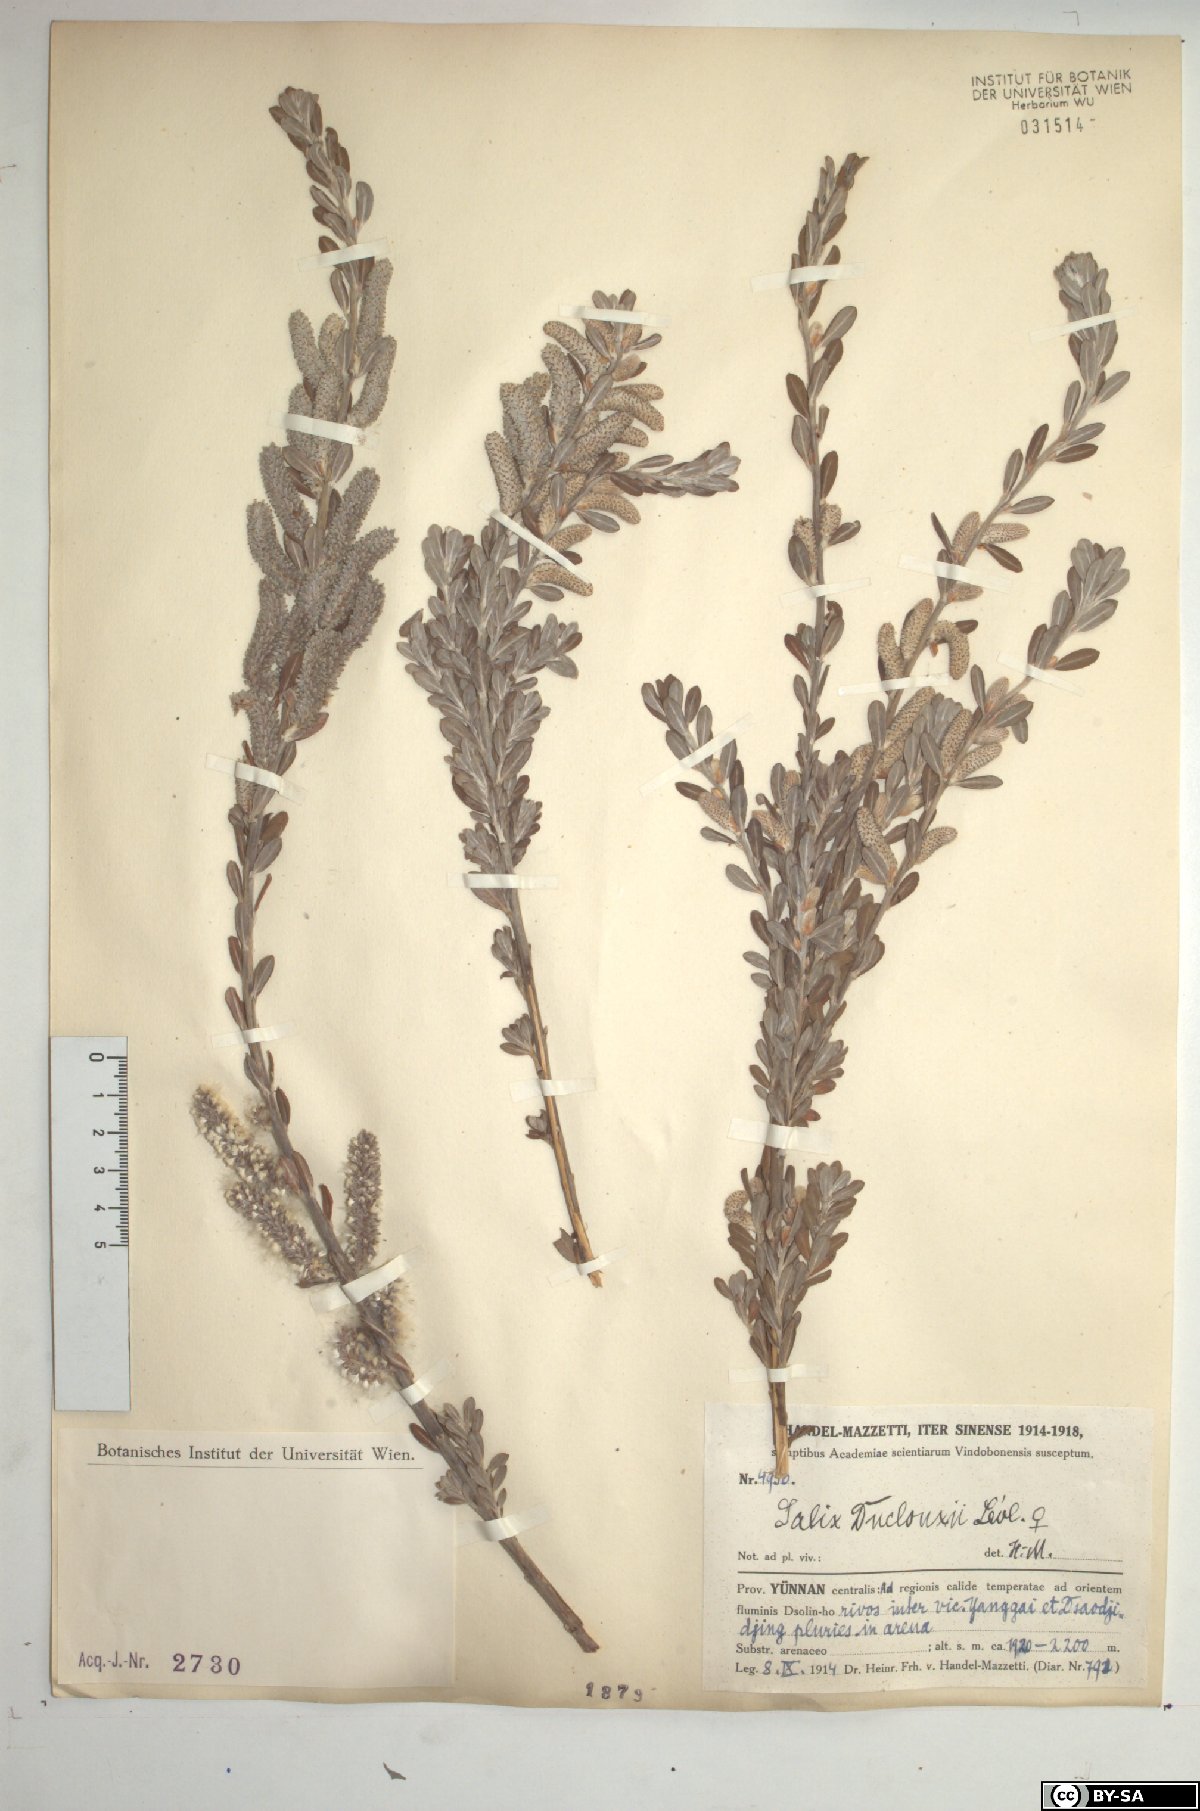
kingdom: Plantae
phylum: Tracheophyta
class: Magnoliopsida
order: Malpighiales
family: Salicaceae
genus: Salix
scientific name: Salix variegata
